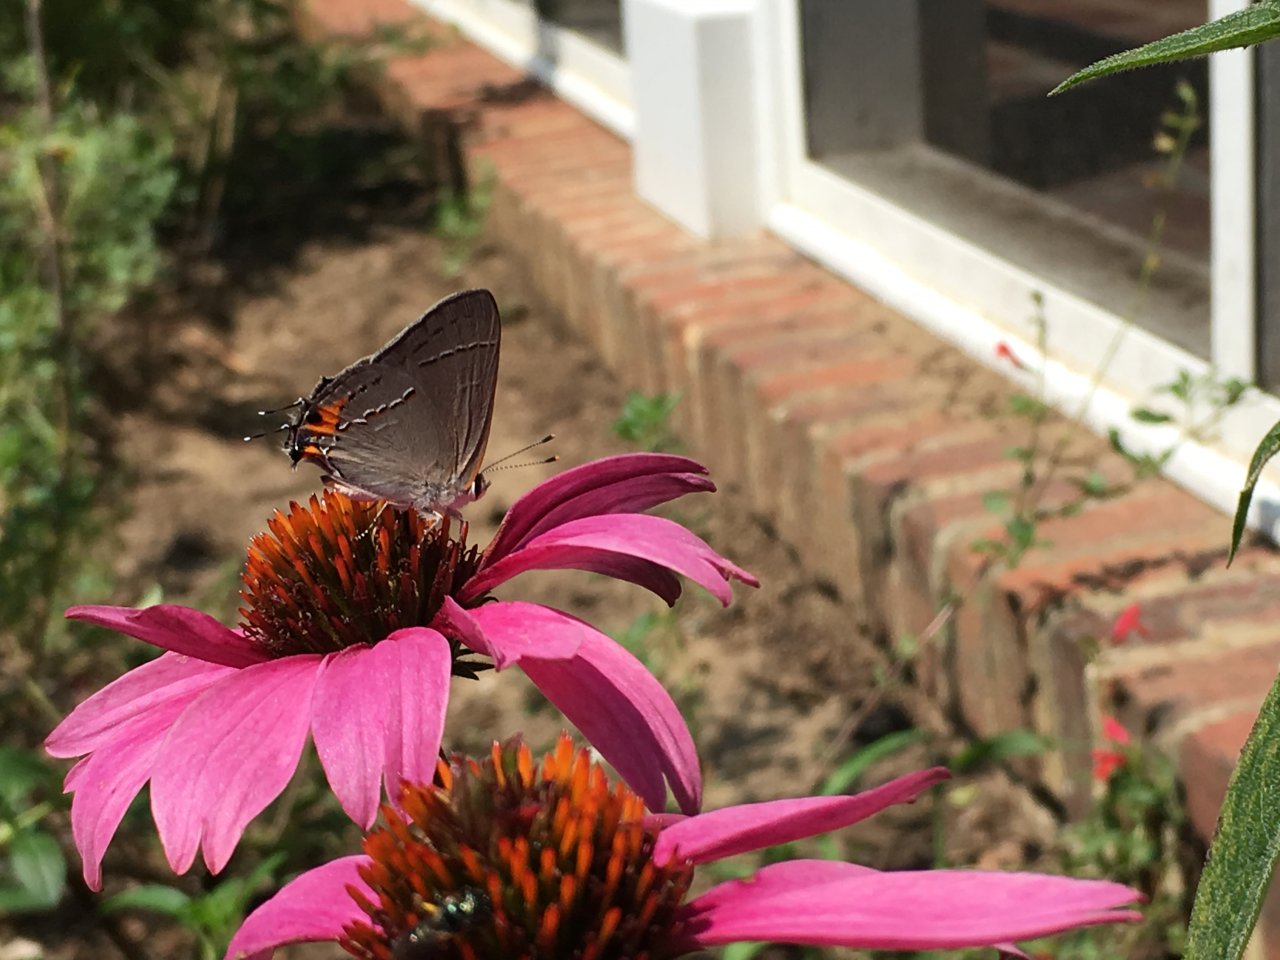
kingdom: Animalia
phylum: Arthropoda
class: Insecta
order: Lepidoptera
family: Lycaenidae
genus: Strymon
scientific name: Strymon melinus
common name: Gray Hairstreak
